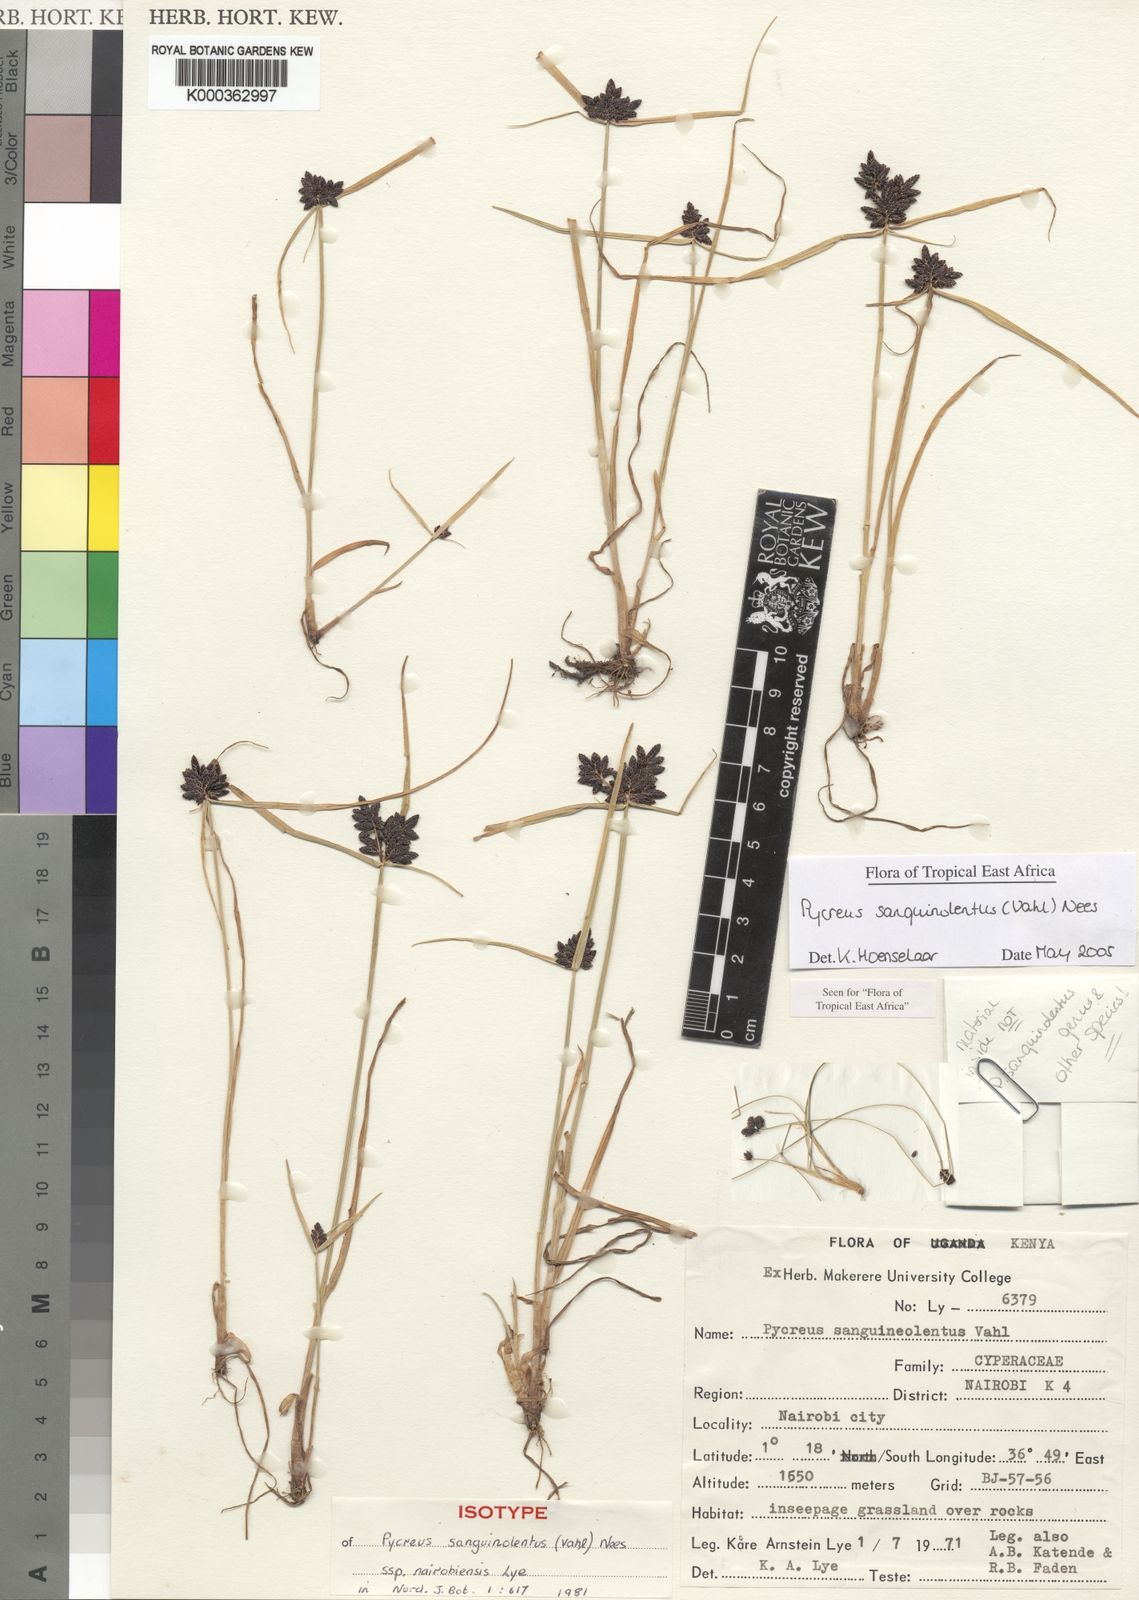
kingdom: Plantae
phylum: Tracheophyta
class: Liliopsida
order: Poales
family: Cyperaceae
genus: Cyperus
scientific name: Cyperus sanguinolentus
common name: Purpleglume flatsedge
